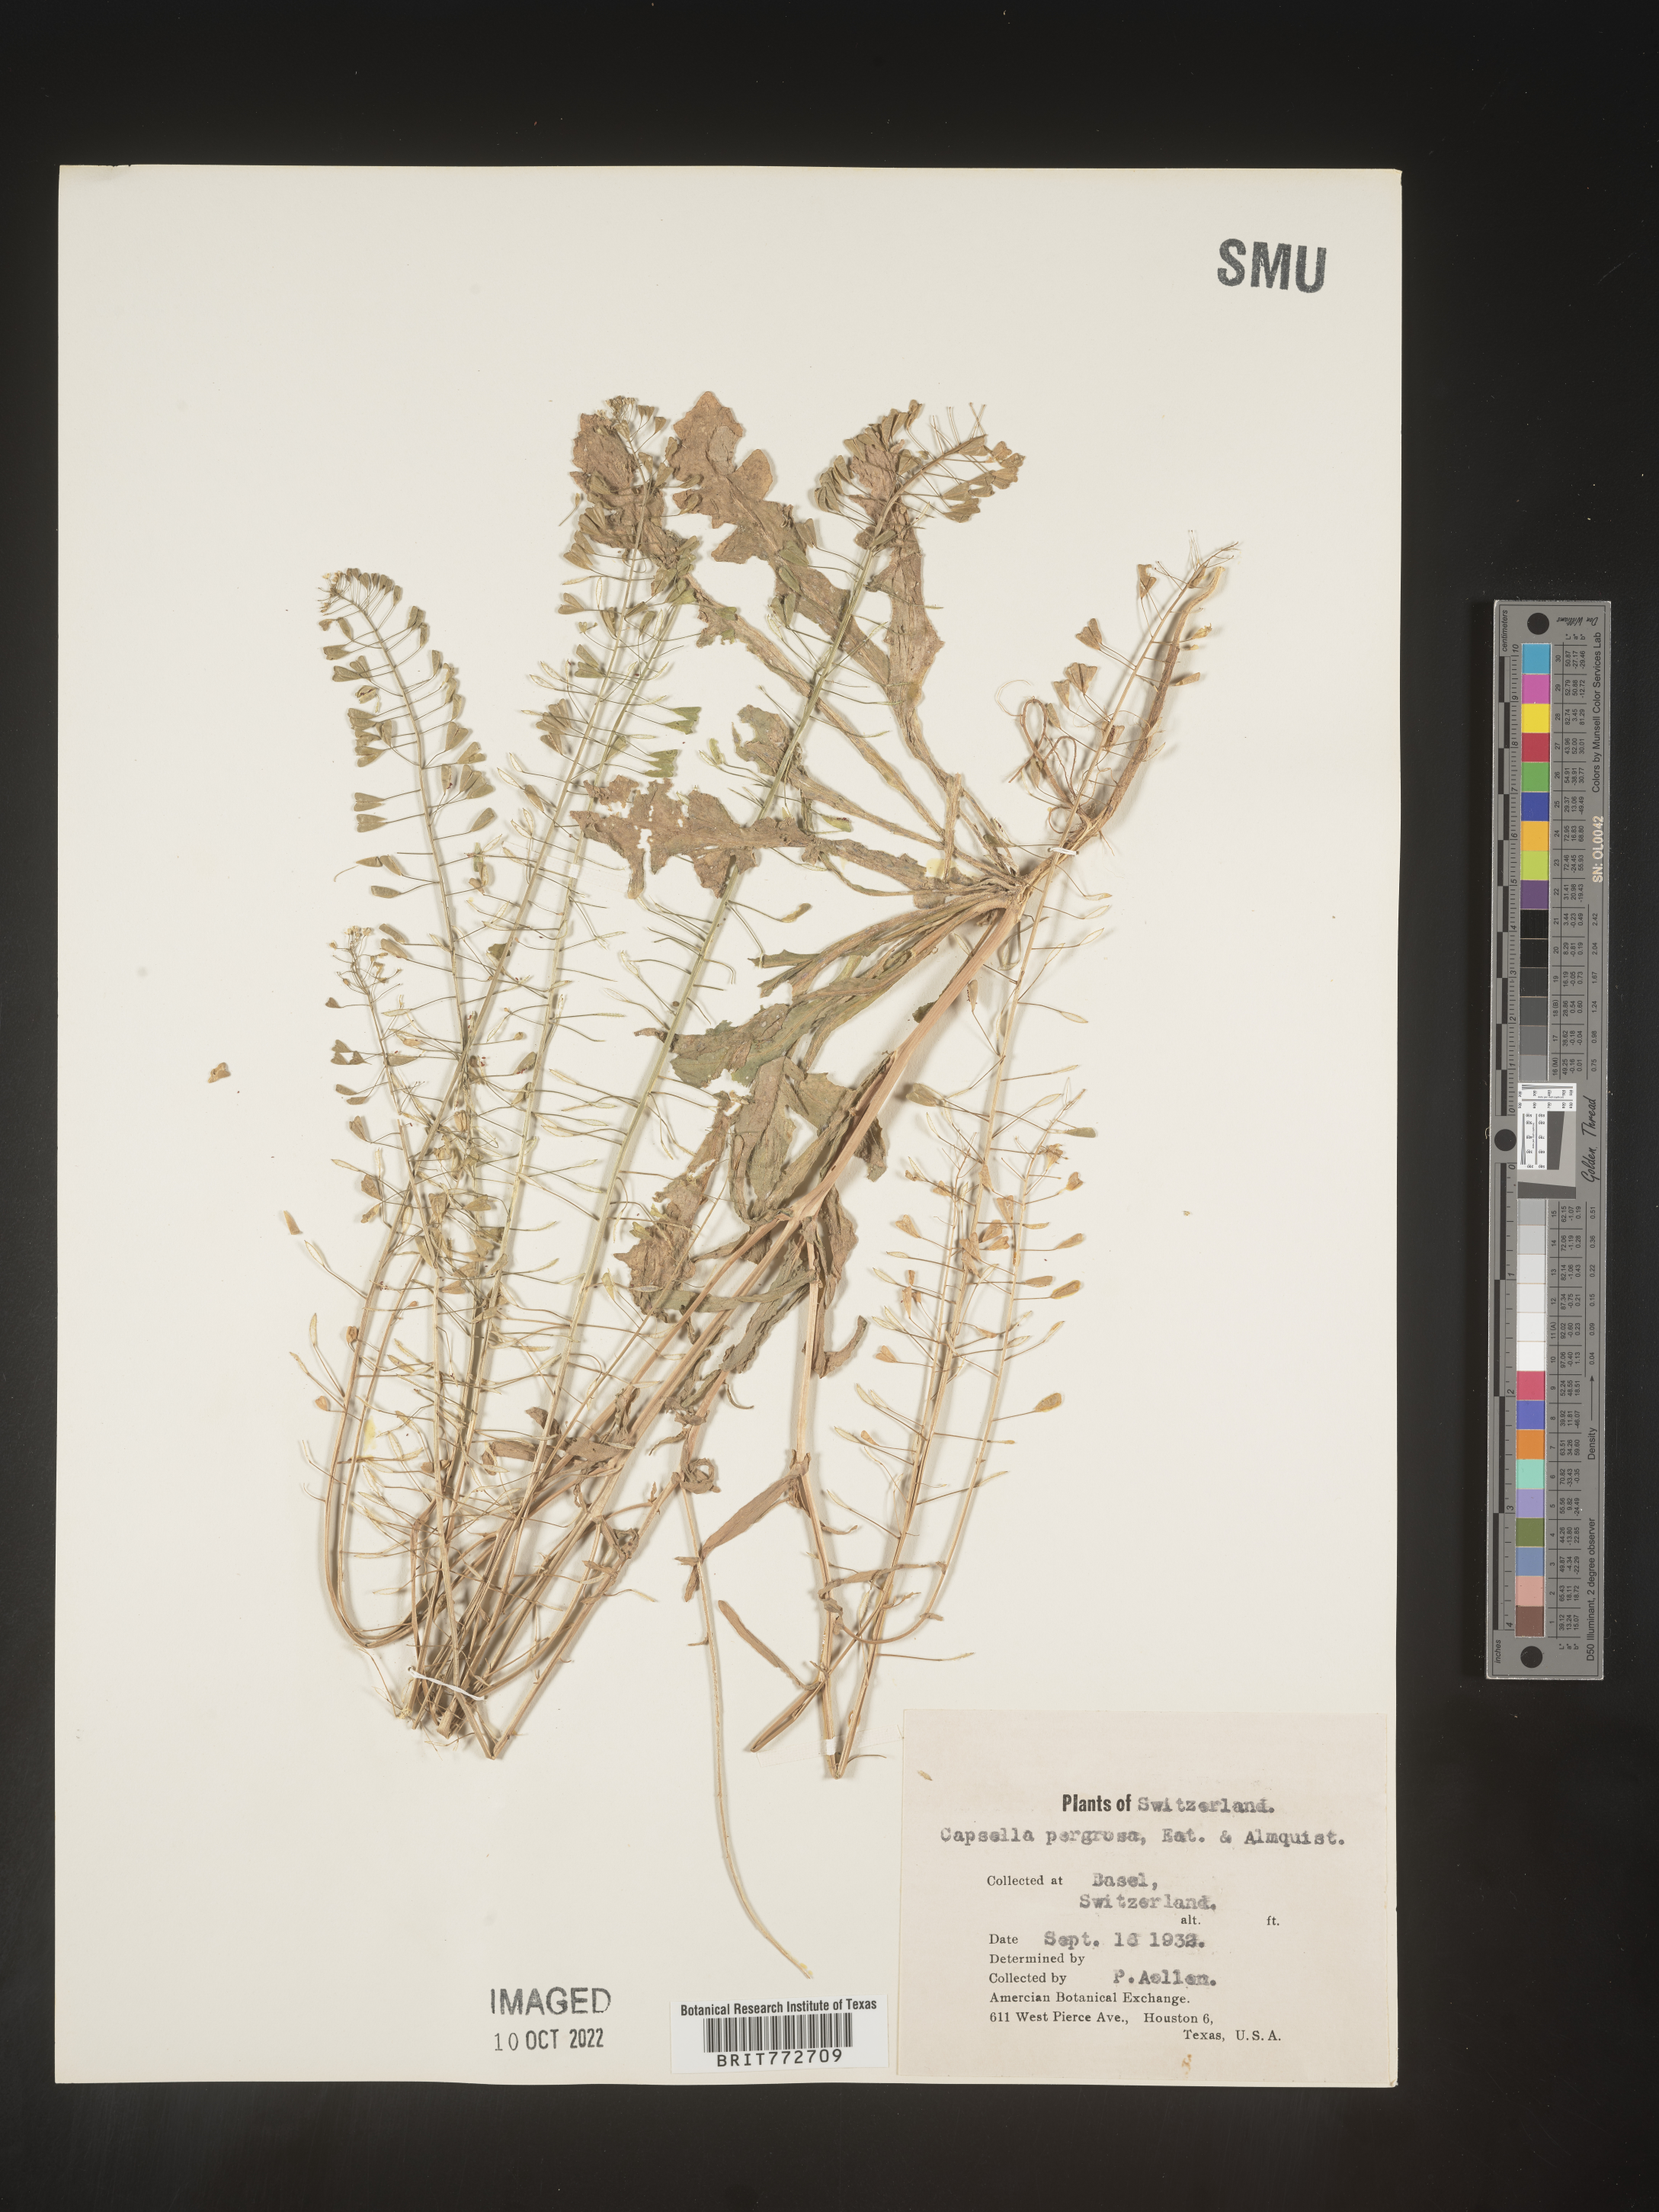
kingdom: Plantae
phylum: Tracheophyta
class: Magnoliopsida
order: Brassicales
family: Brassicaceae
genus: Capsella
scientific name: Capsella
